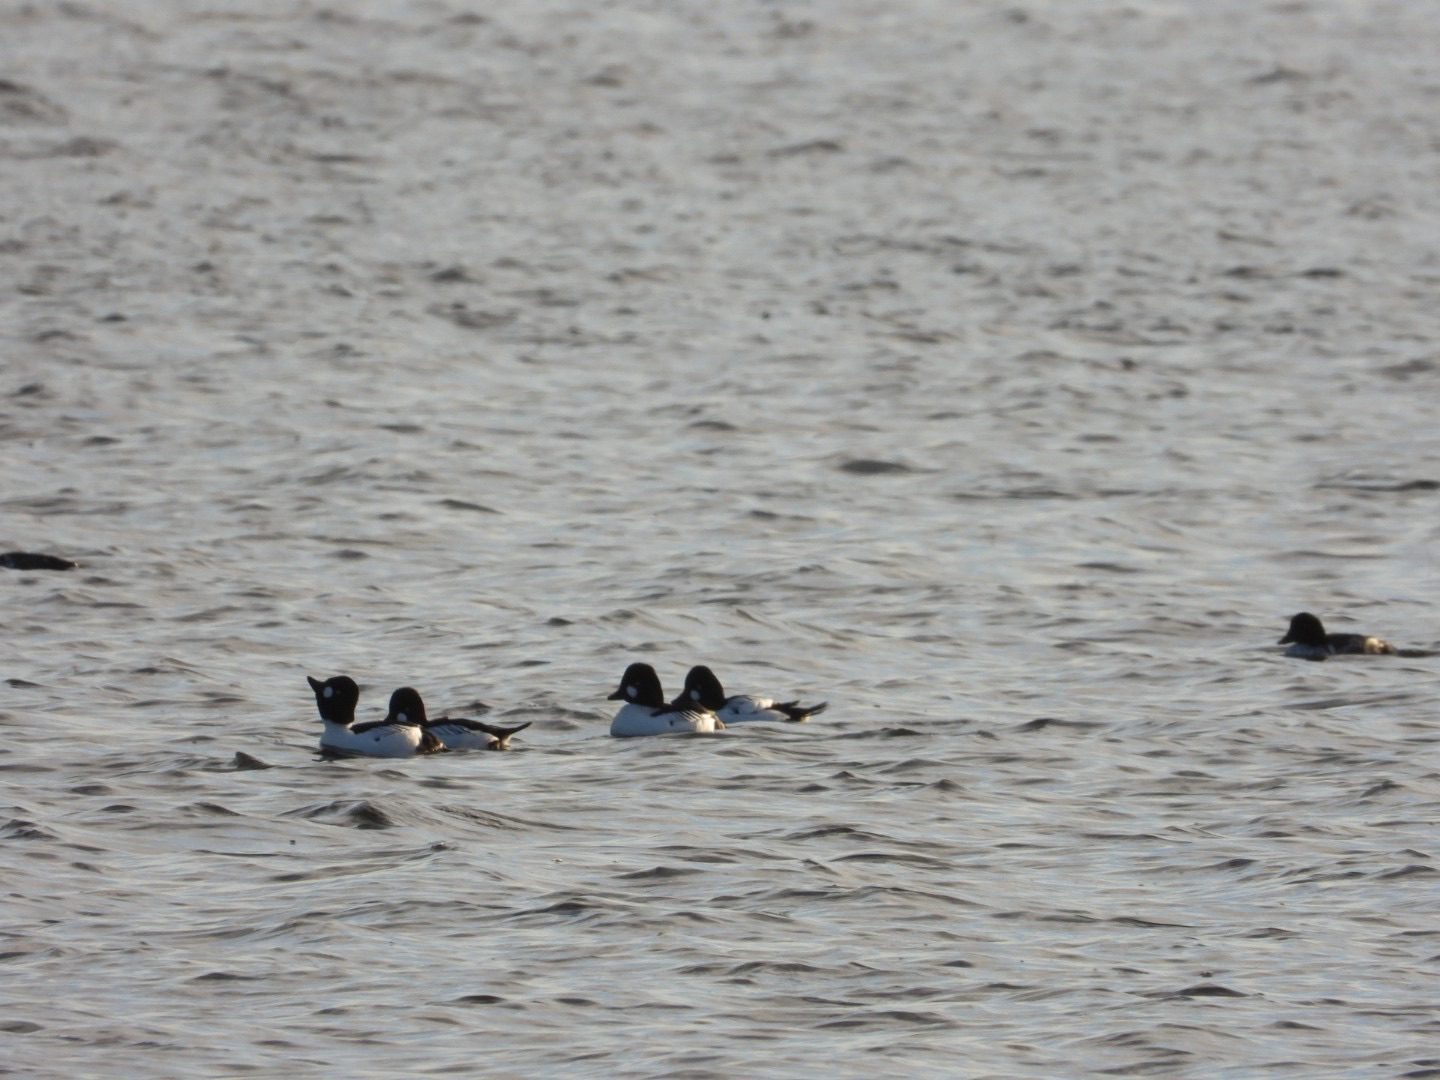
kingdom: Animalia
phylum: Chordata
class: Aves
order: Anseriformes
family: Anatidae
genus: Bucephala
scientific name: Bucephala clangula
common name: Hvinand
